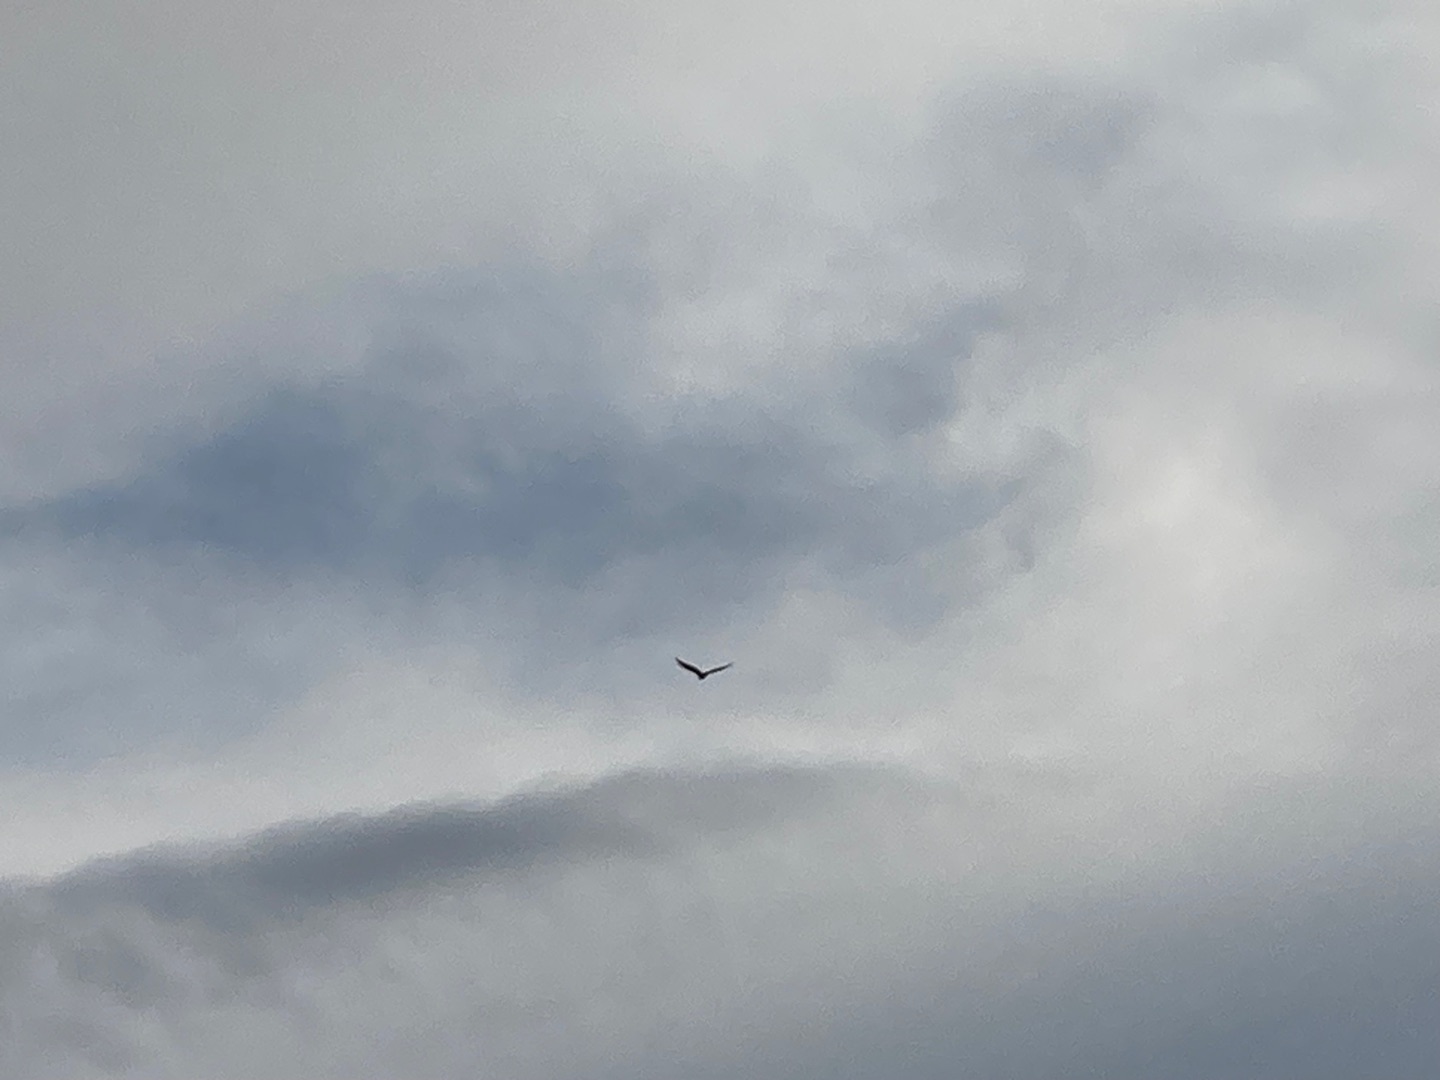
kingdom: Animalia
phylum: Chordata
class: Aves
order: Accipitriformes
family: Accipitridae
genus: Buteo
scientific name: Buteo buteo
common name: Musvåge
